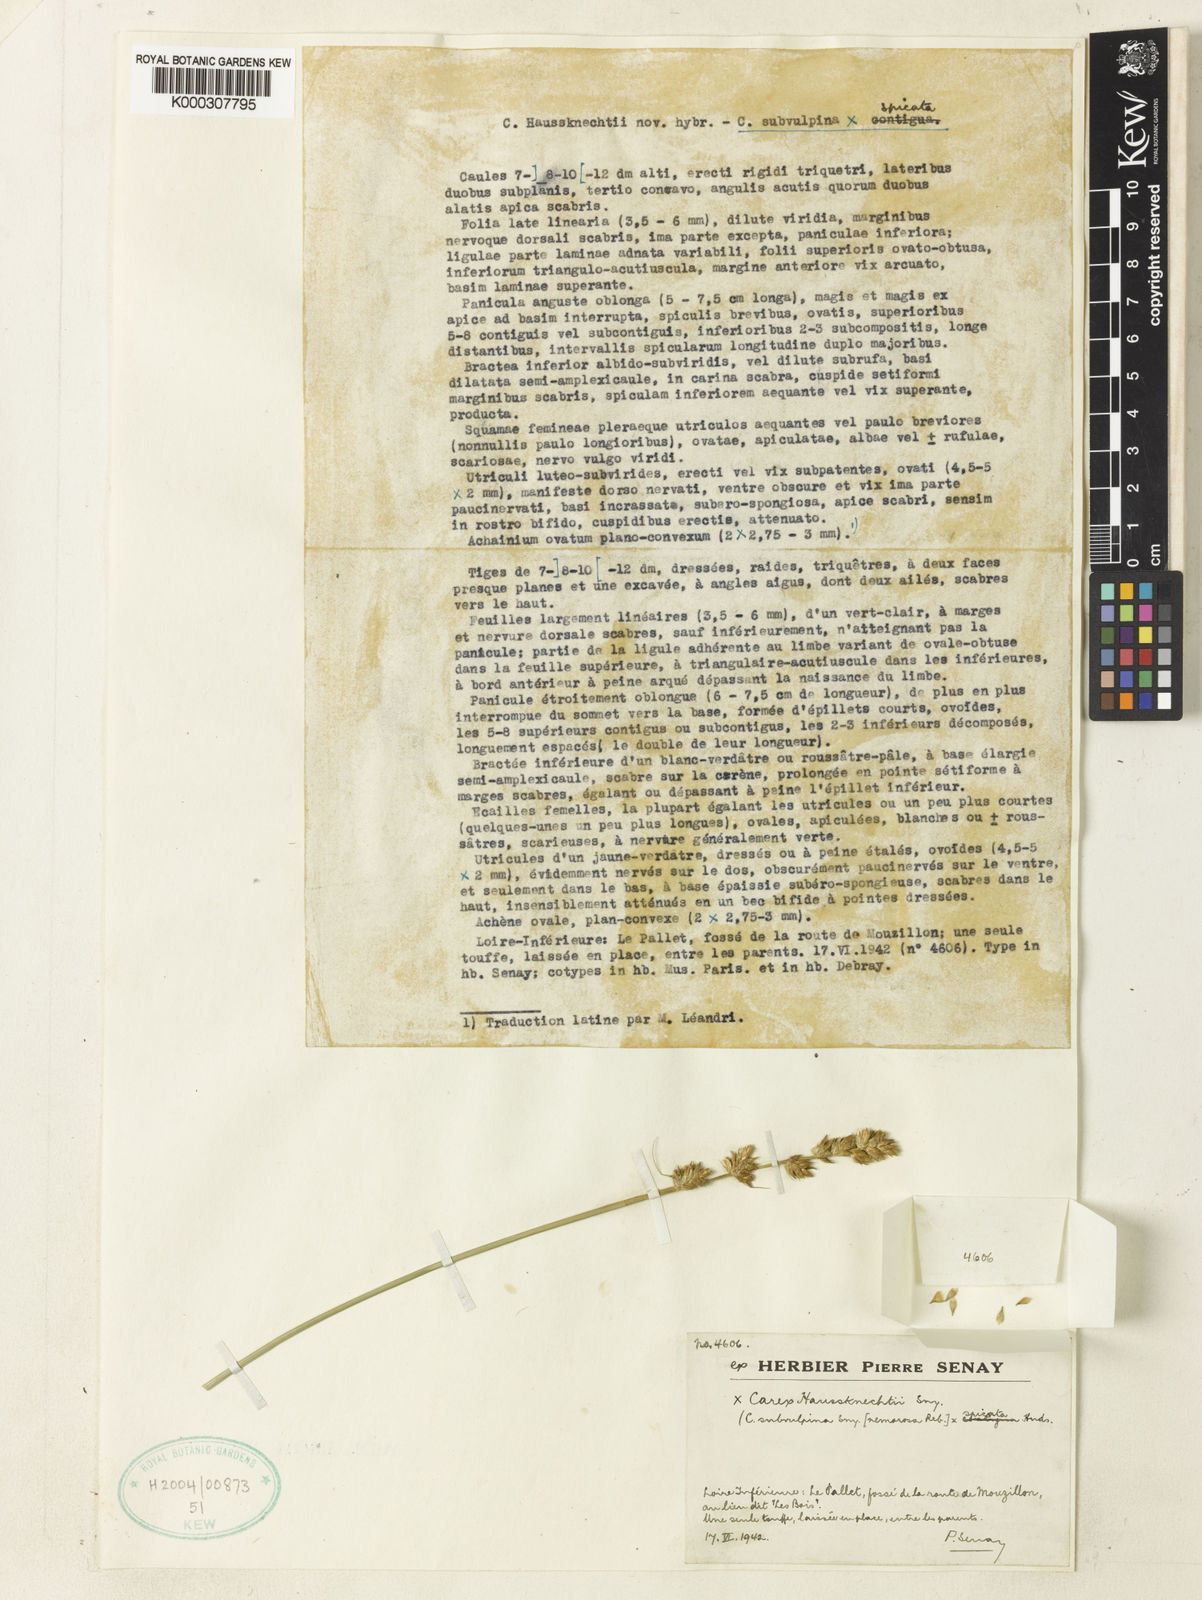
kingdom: Plantae
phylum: Tracheophyta
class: Liliopsida
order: Poales
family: Cyperaceae
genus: Carex
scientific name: Carex senayana
